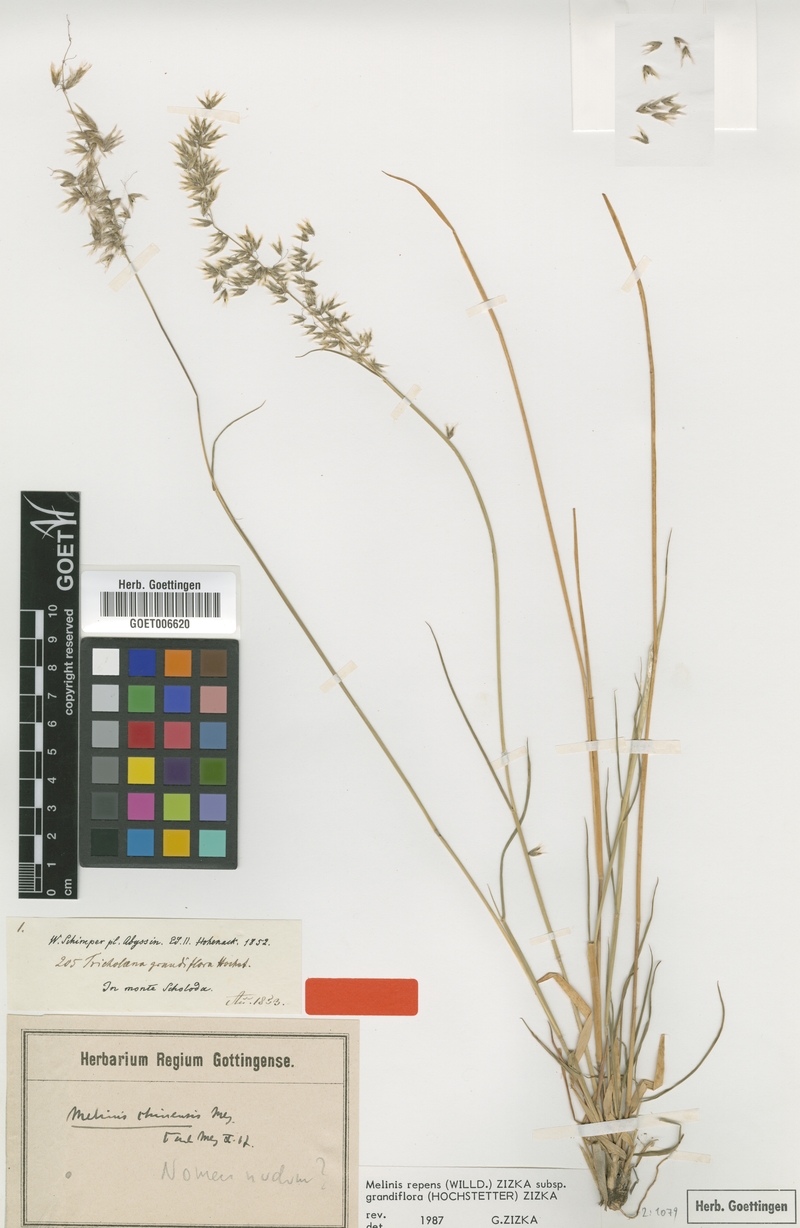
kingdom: Plantae
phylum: Tracheophyta
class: Liliopsida
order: Poales
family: Poaceae
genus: Melinis
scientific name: Melinis repens
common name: Rose natal grass
